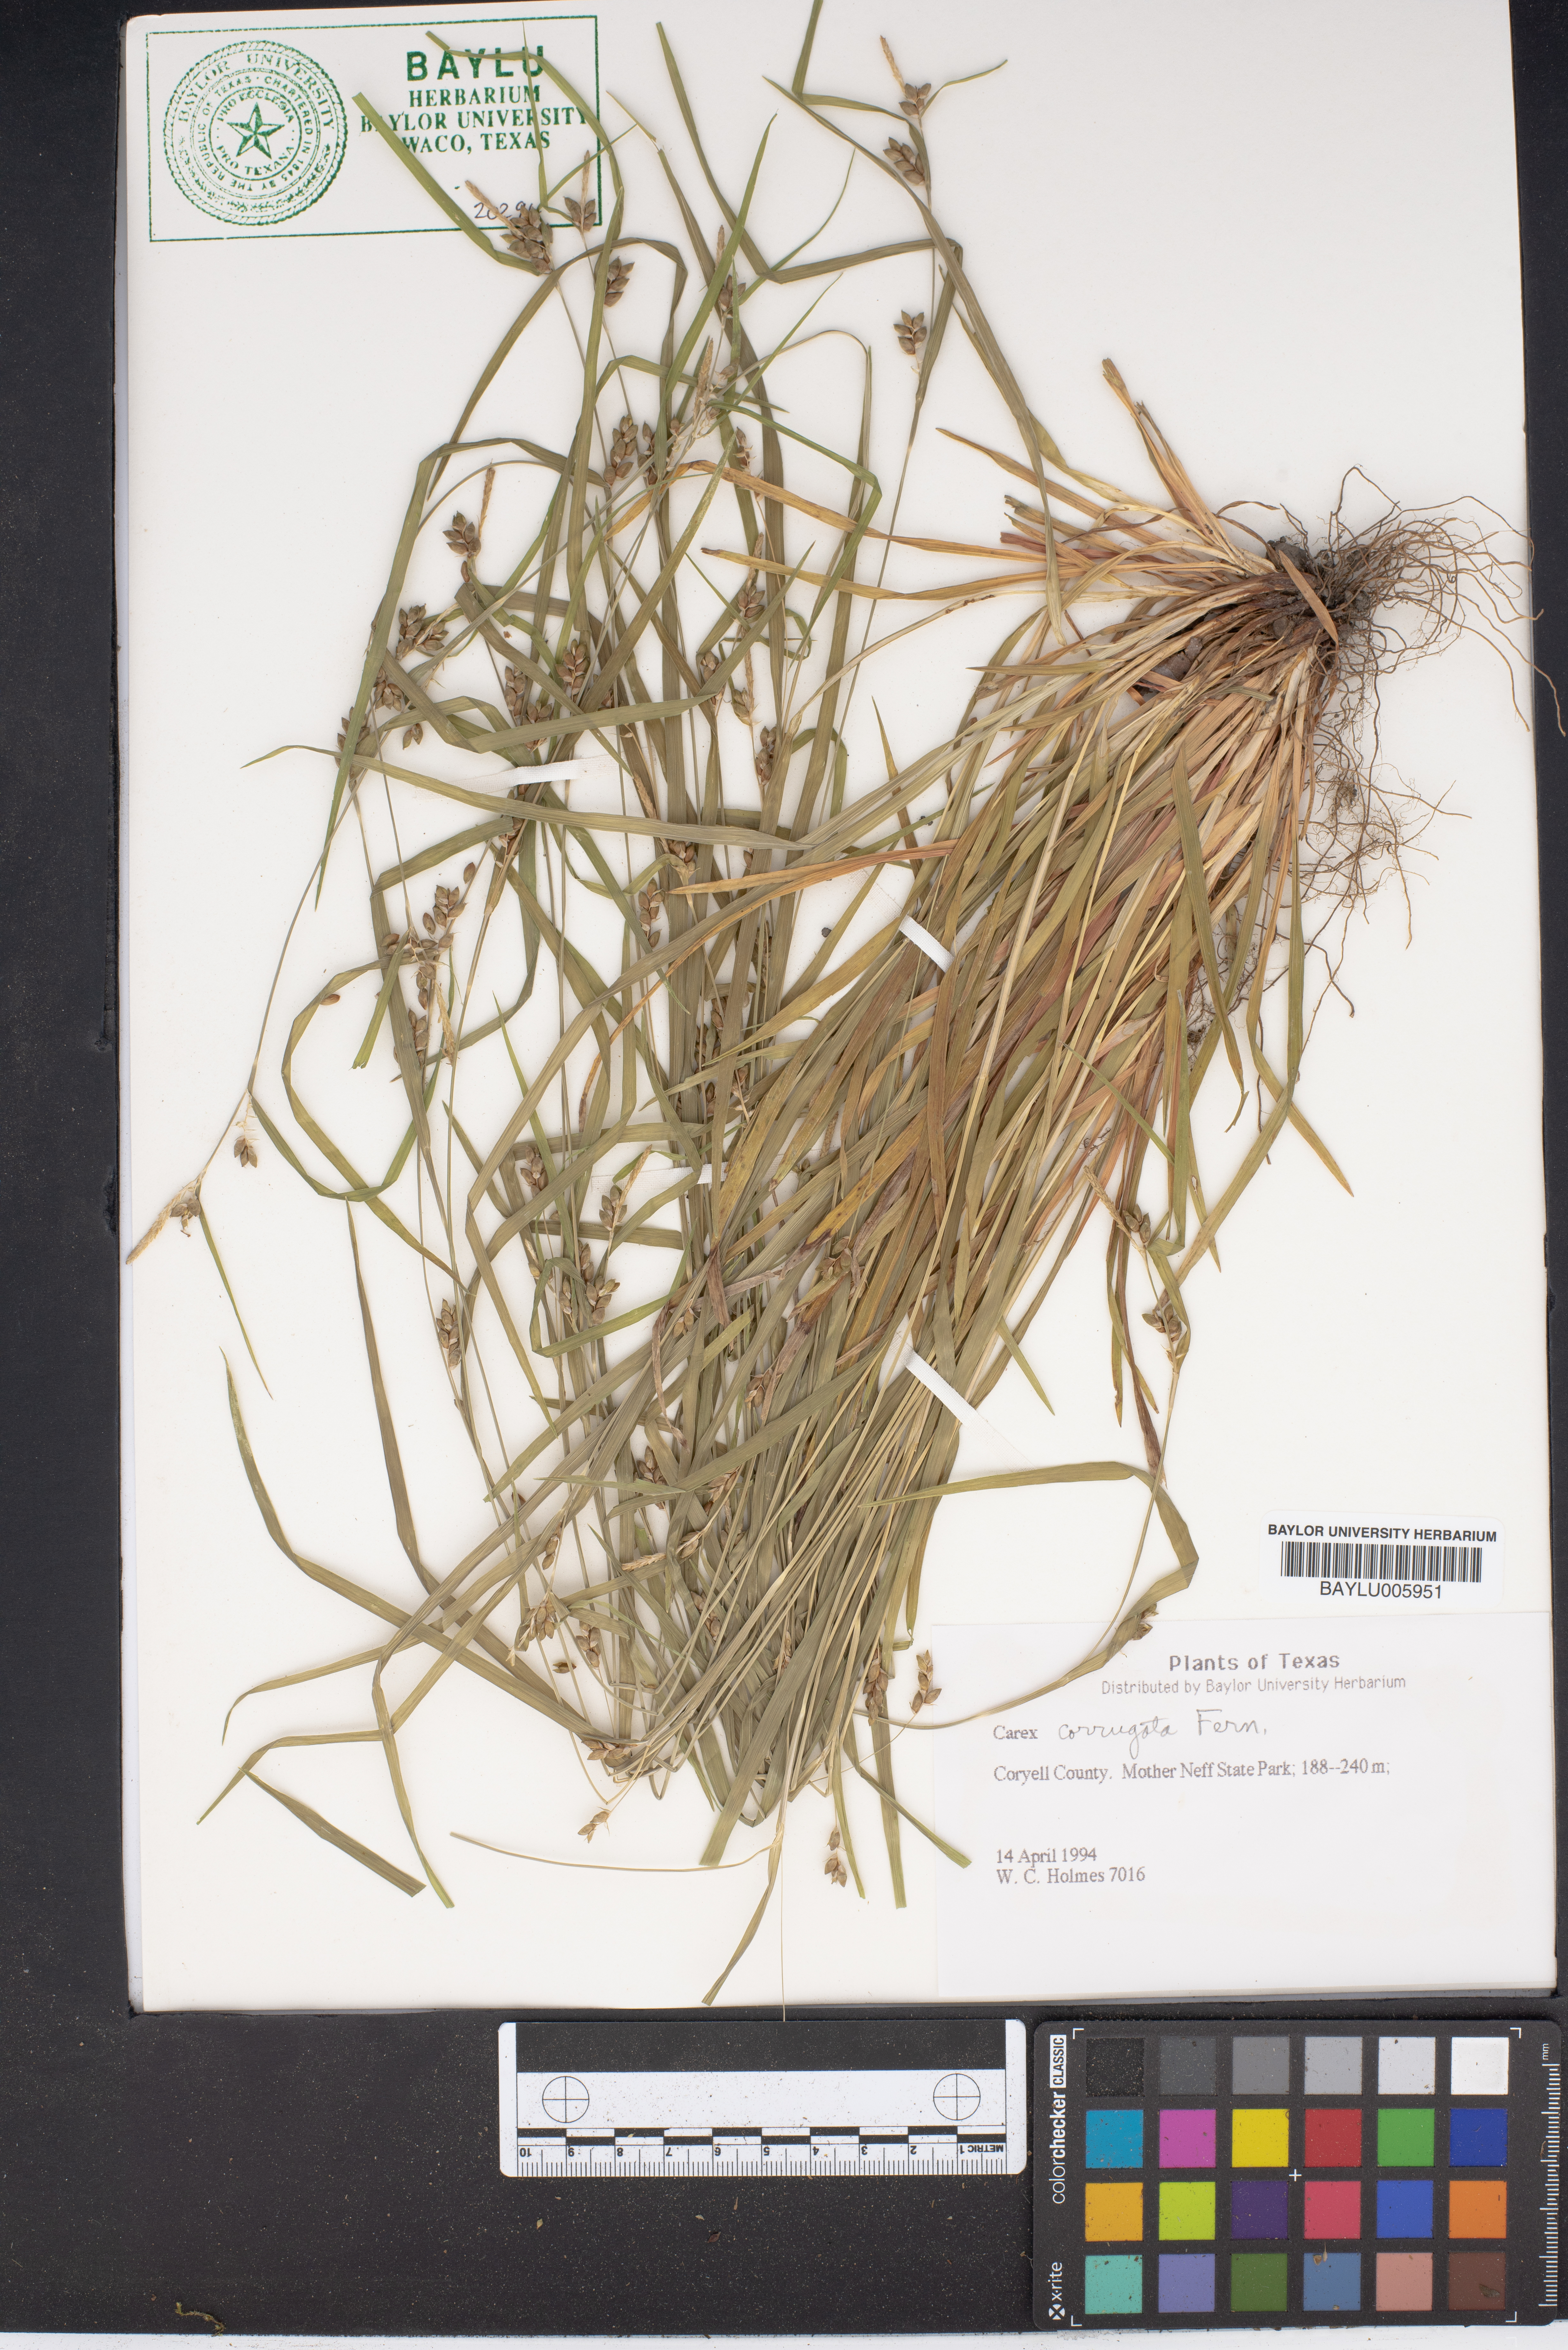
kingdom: Plantae
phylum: Tracheophyta
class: Liliopsida
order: Poales
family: Cyperaceae
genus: Carex
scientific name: Carex corrugata
